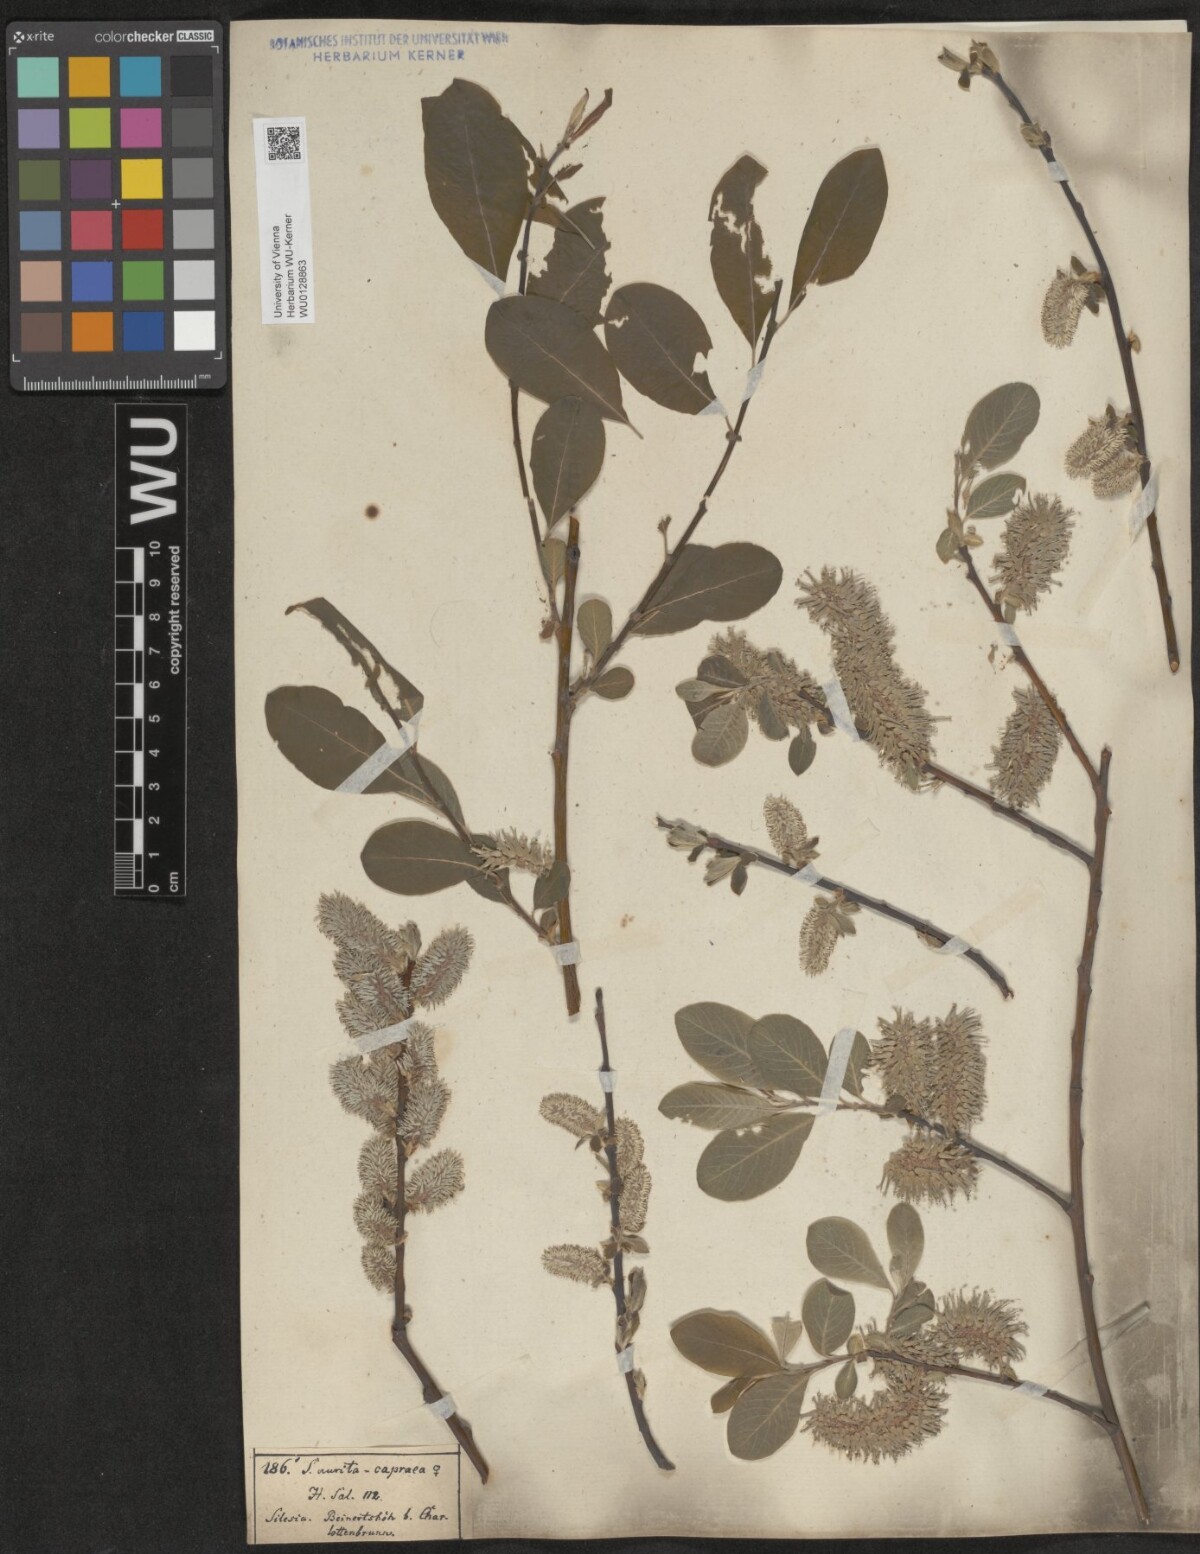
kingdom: Plantae
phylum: Tracheophyta
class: Magnoliopsida
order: Malpighiales
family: Salicaceae
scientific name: Salicaceae
